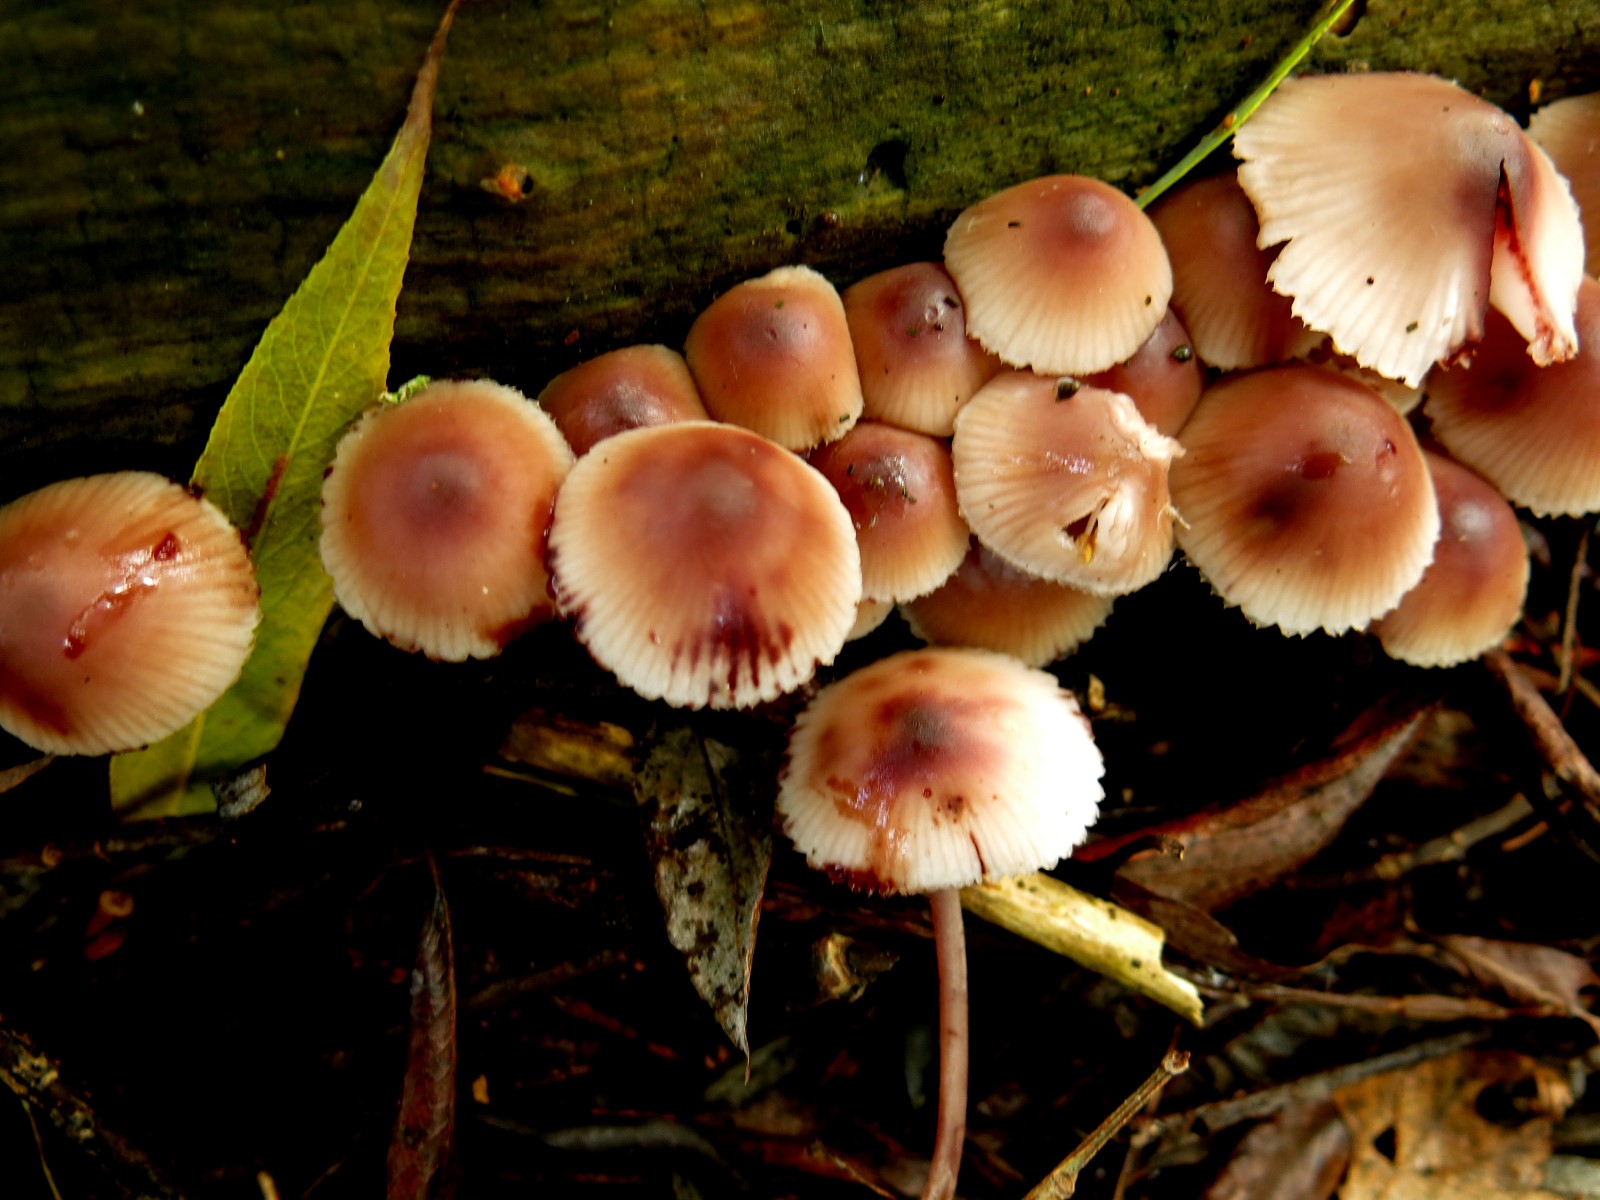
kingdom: Fungi
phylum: Basidiomycota
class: Agaricomycetes
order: Agaricales
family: Mycenaceae
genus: Mycena
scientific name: Mycena haematopus
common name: blødende huesvamp
